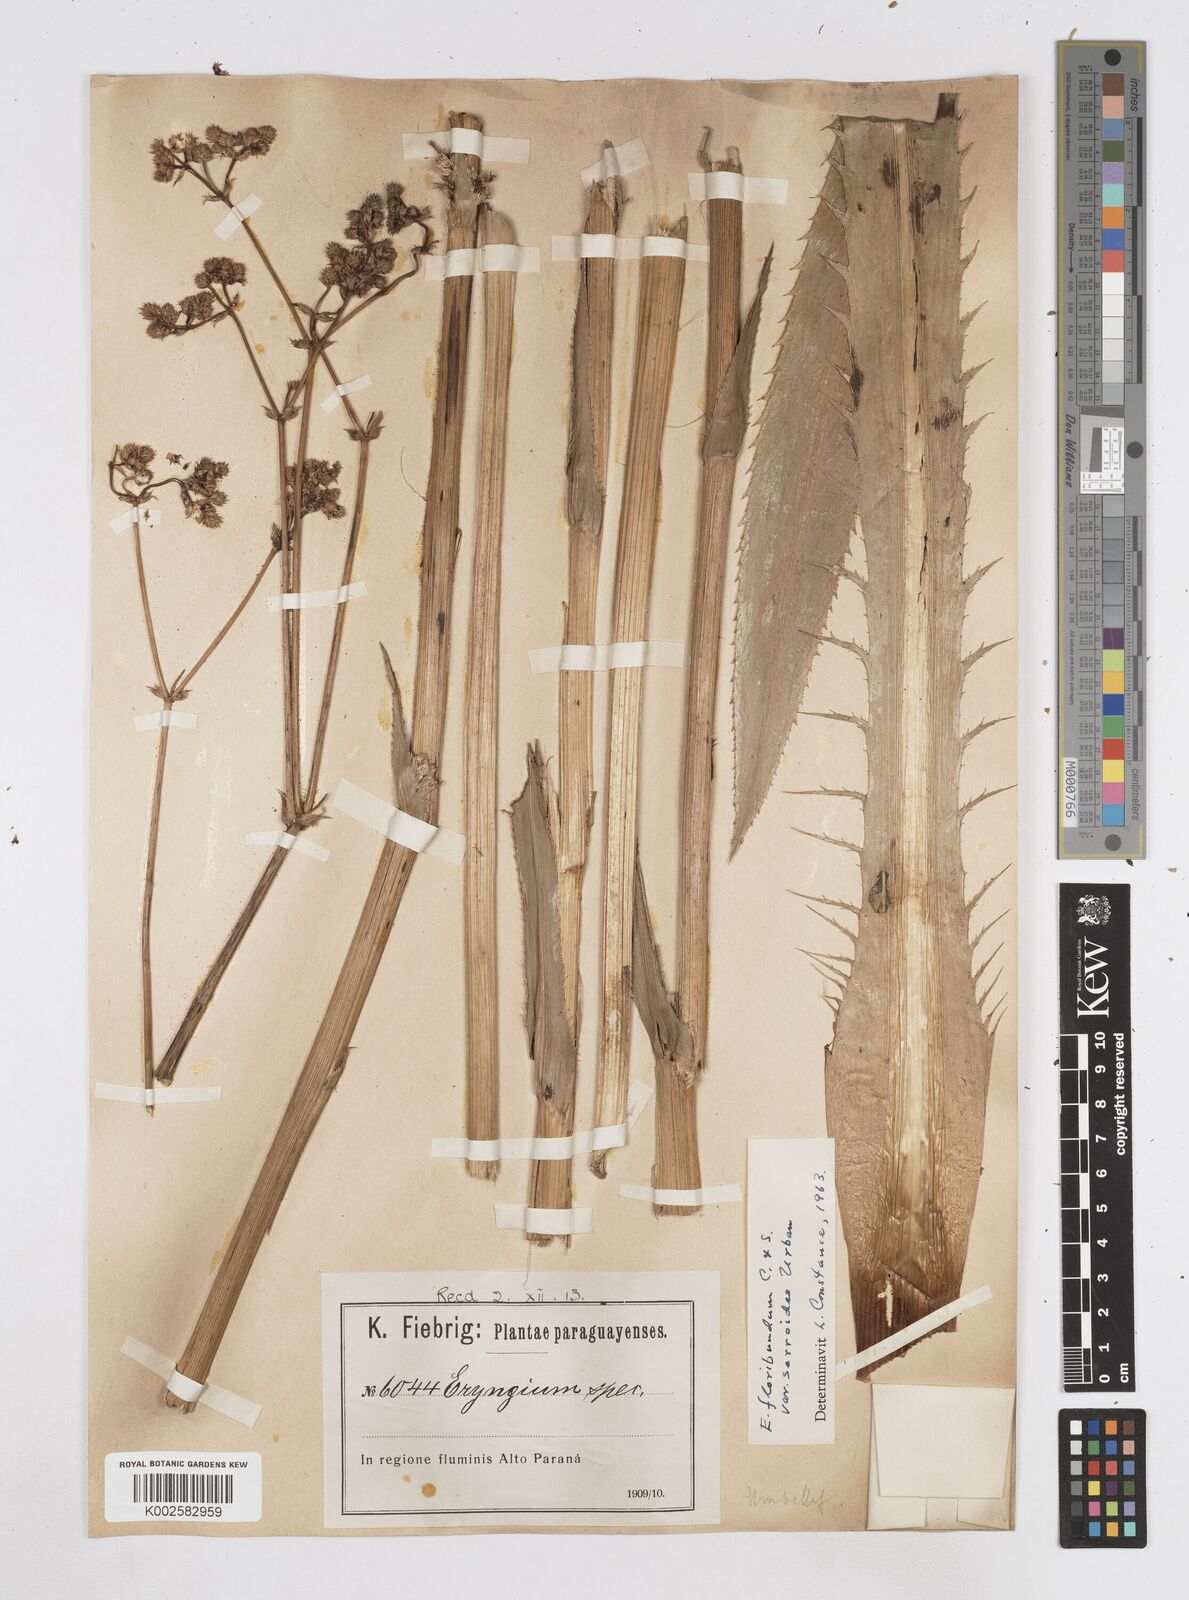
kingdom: Plantae
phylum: Tracheophyta
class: Magnoliopsida
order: Apiales
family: Apiaceae
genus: Eryngium
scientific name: Eryngium floribundum
